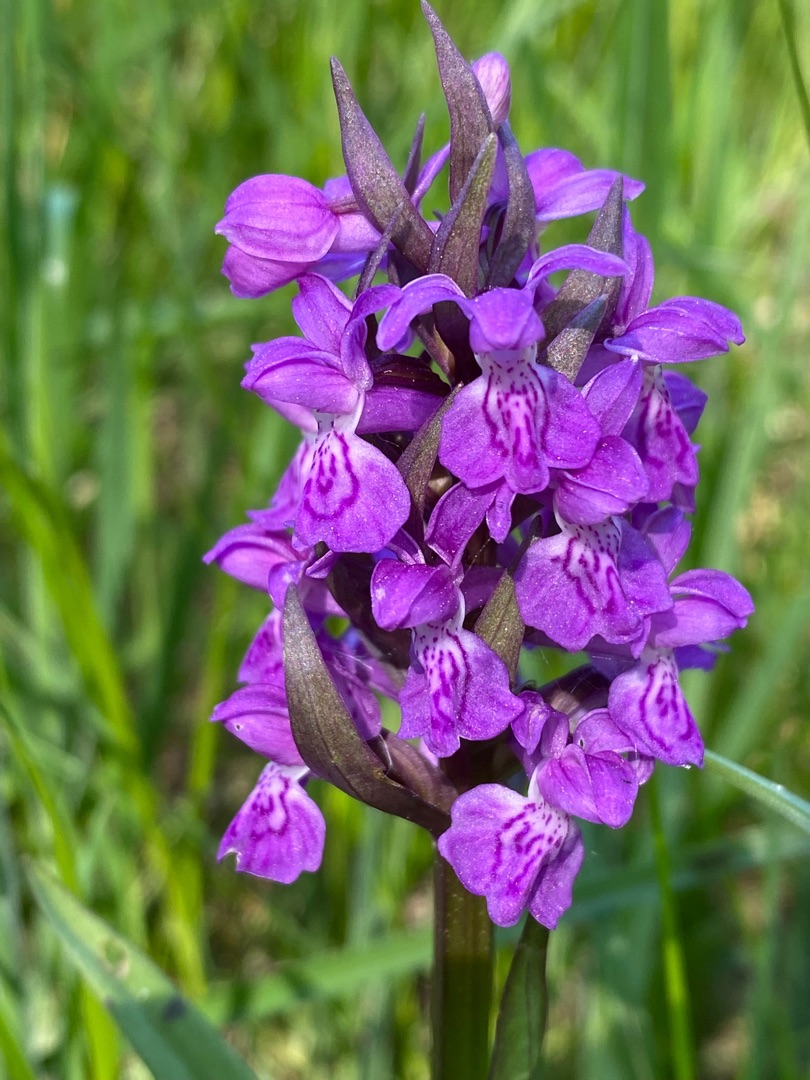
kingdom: Plantae
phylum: Tracheophyta
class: Liliopsida
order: Asparagales
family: Orchidaceae
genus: Dactylorhiza
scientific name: Dactylorhiza majalis
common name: Maj-gøgeurt
